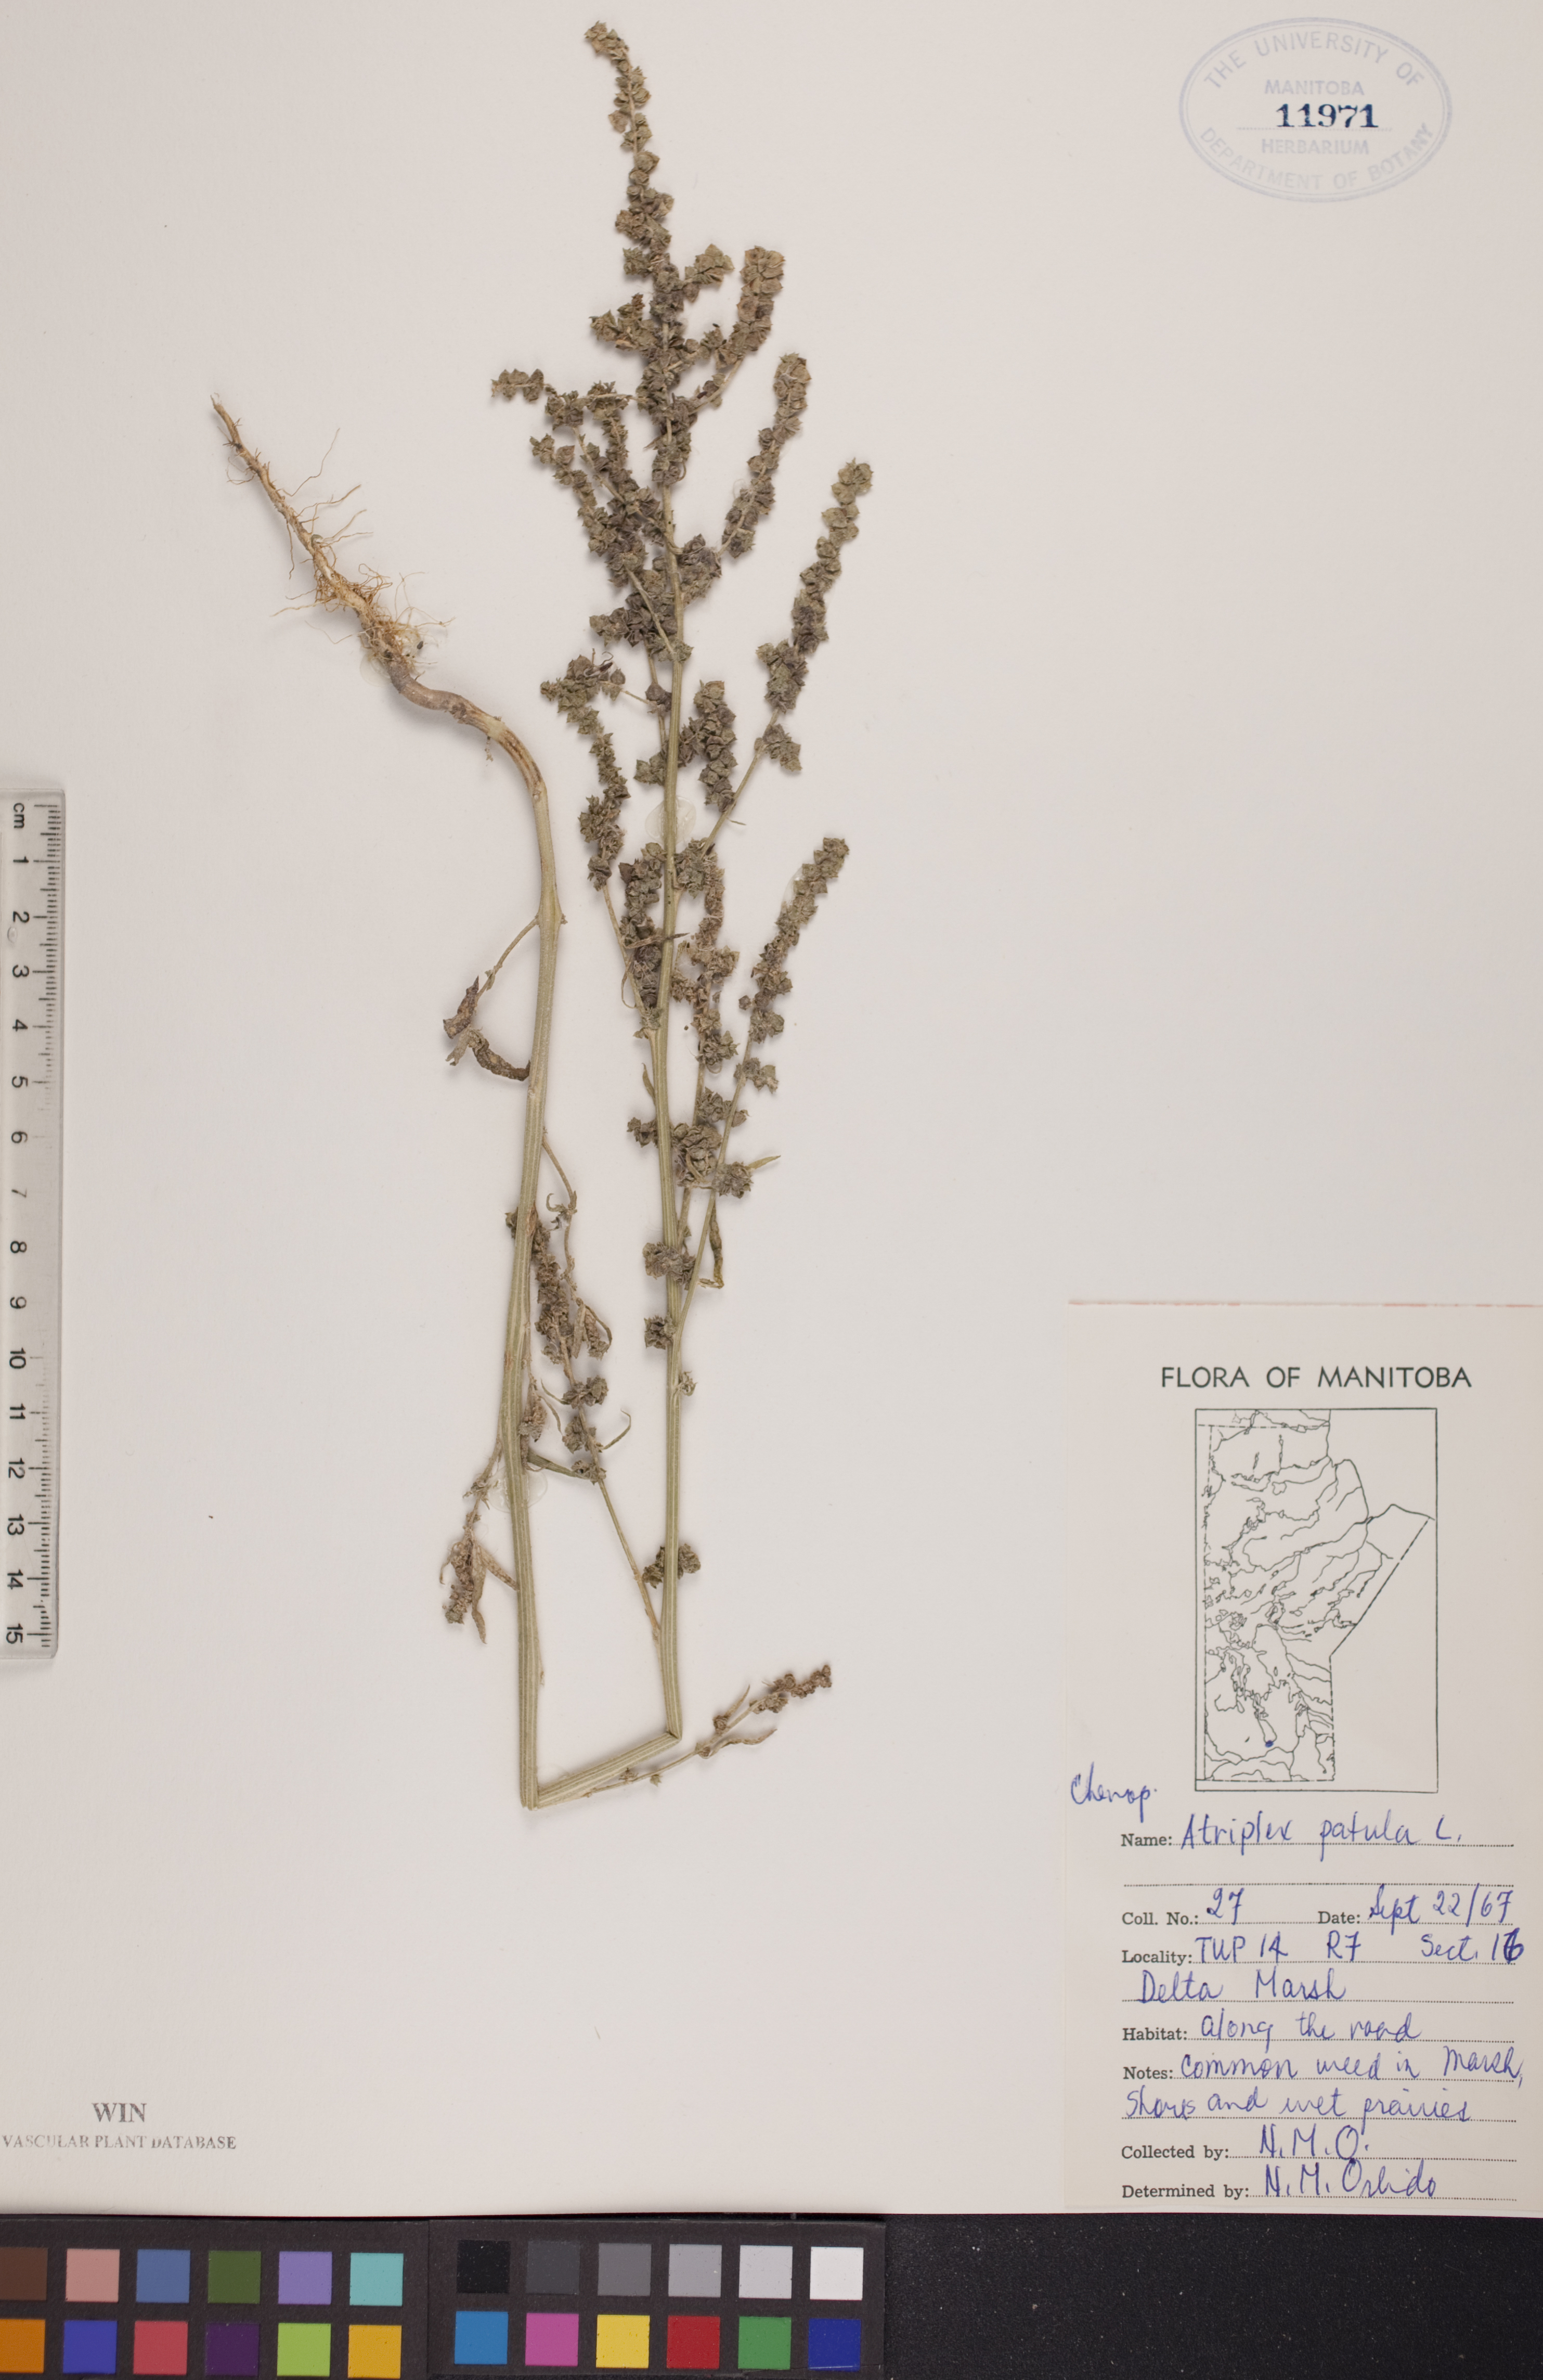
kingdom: Plantae
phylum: Tracheophyta
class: Magnoliopsida
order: Caryophyllales
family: Amaranthaceae
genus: Atriplex
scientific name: Atriplex patula
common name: Common orache
